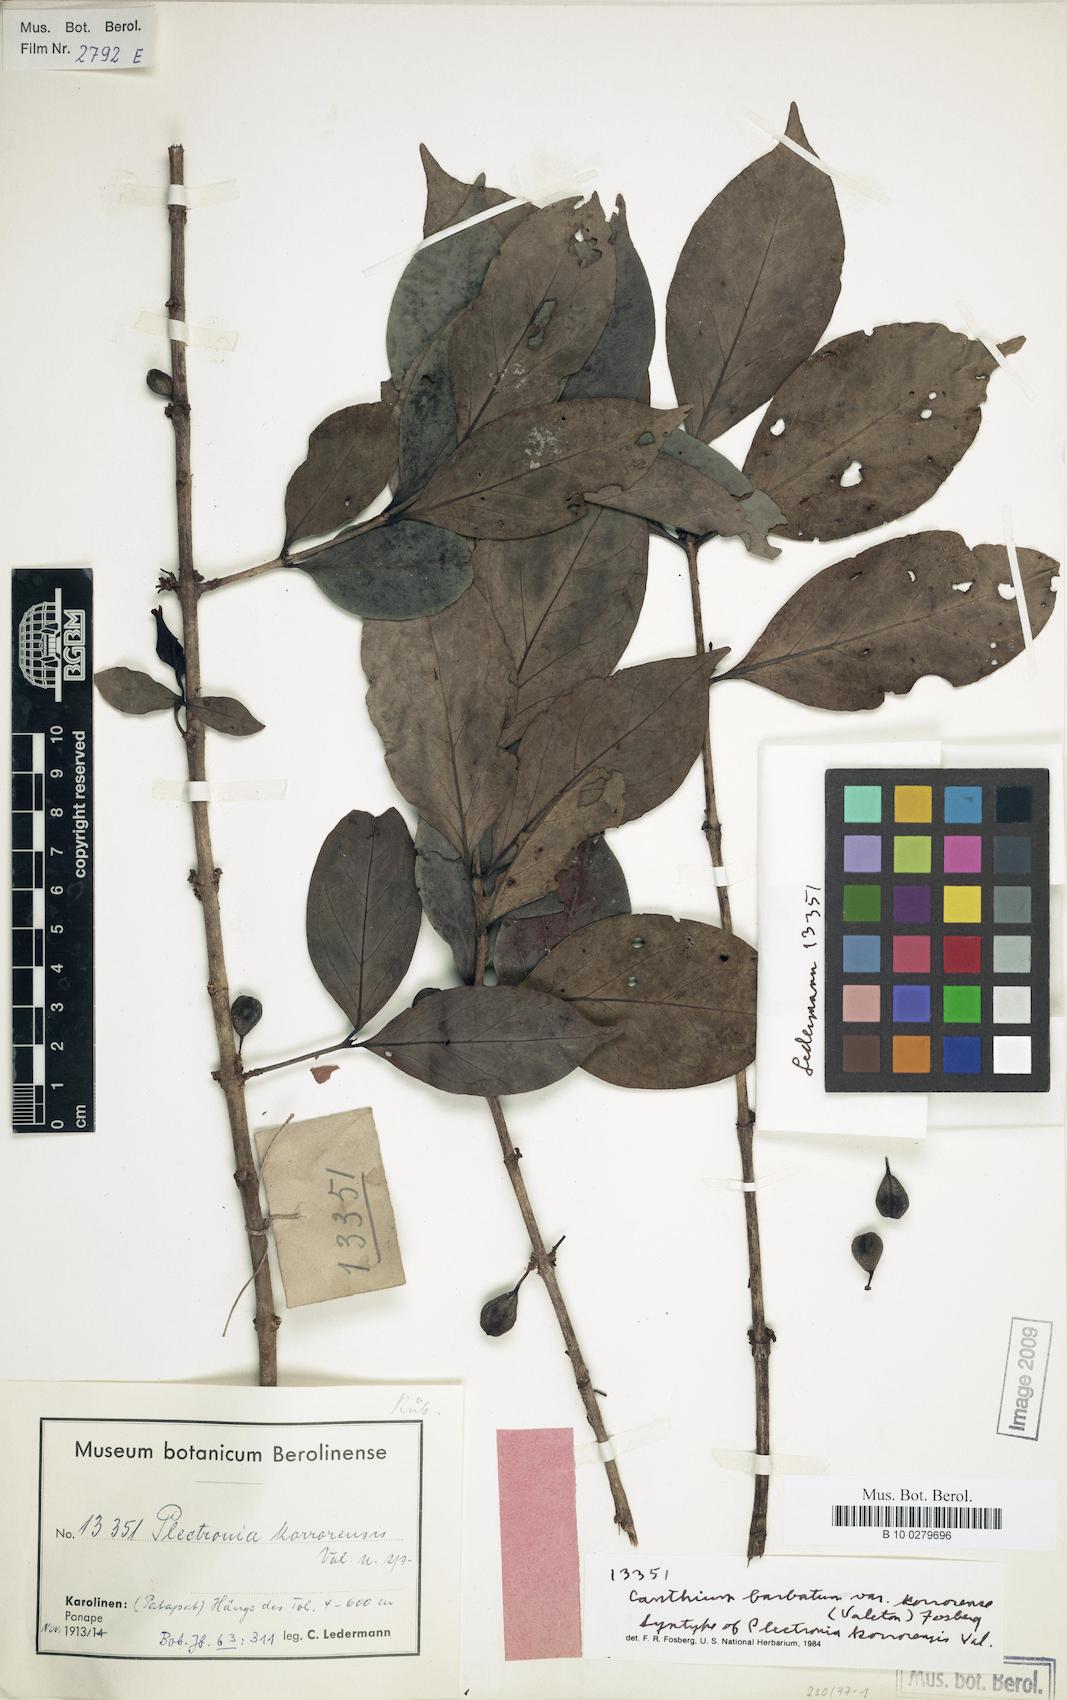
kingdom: Plantae
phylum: Tracheophyta
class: Magnoliopsida
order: Gentianales
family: Rubiaceae
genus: Cyclophyllum
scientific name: Cyclophyllum barbatum
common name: Cyclophyllum
